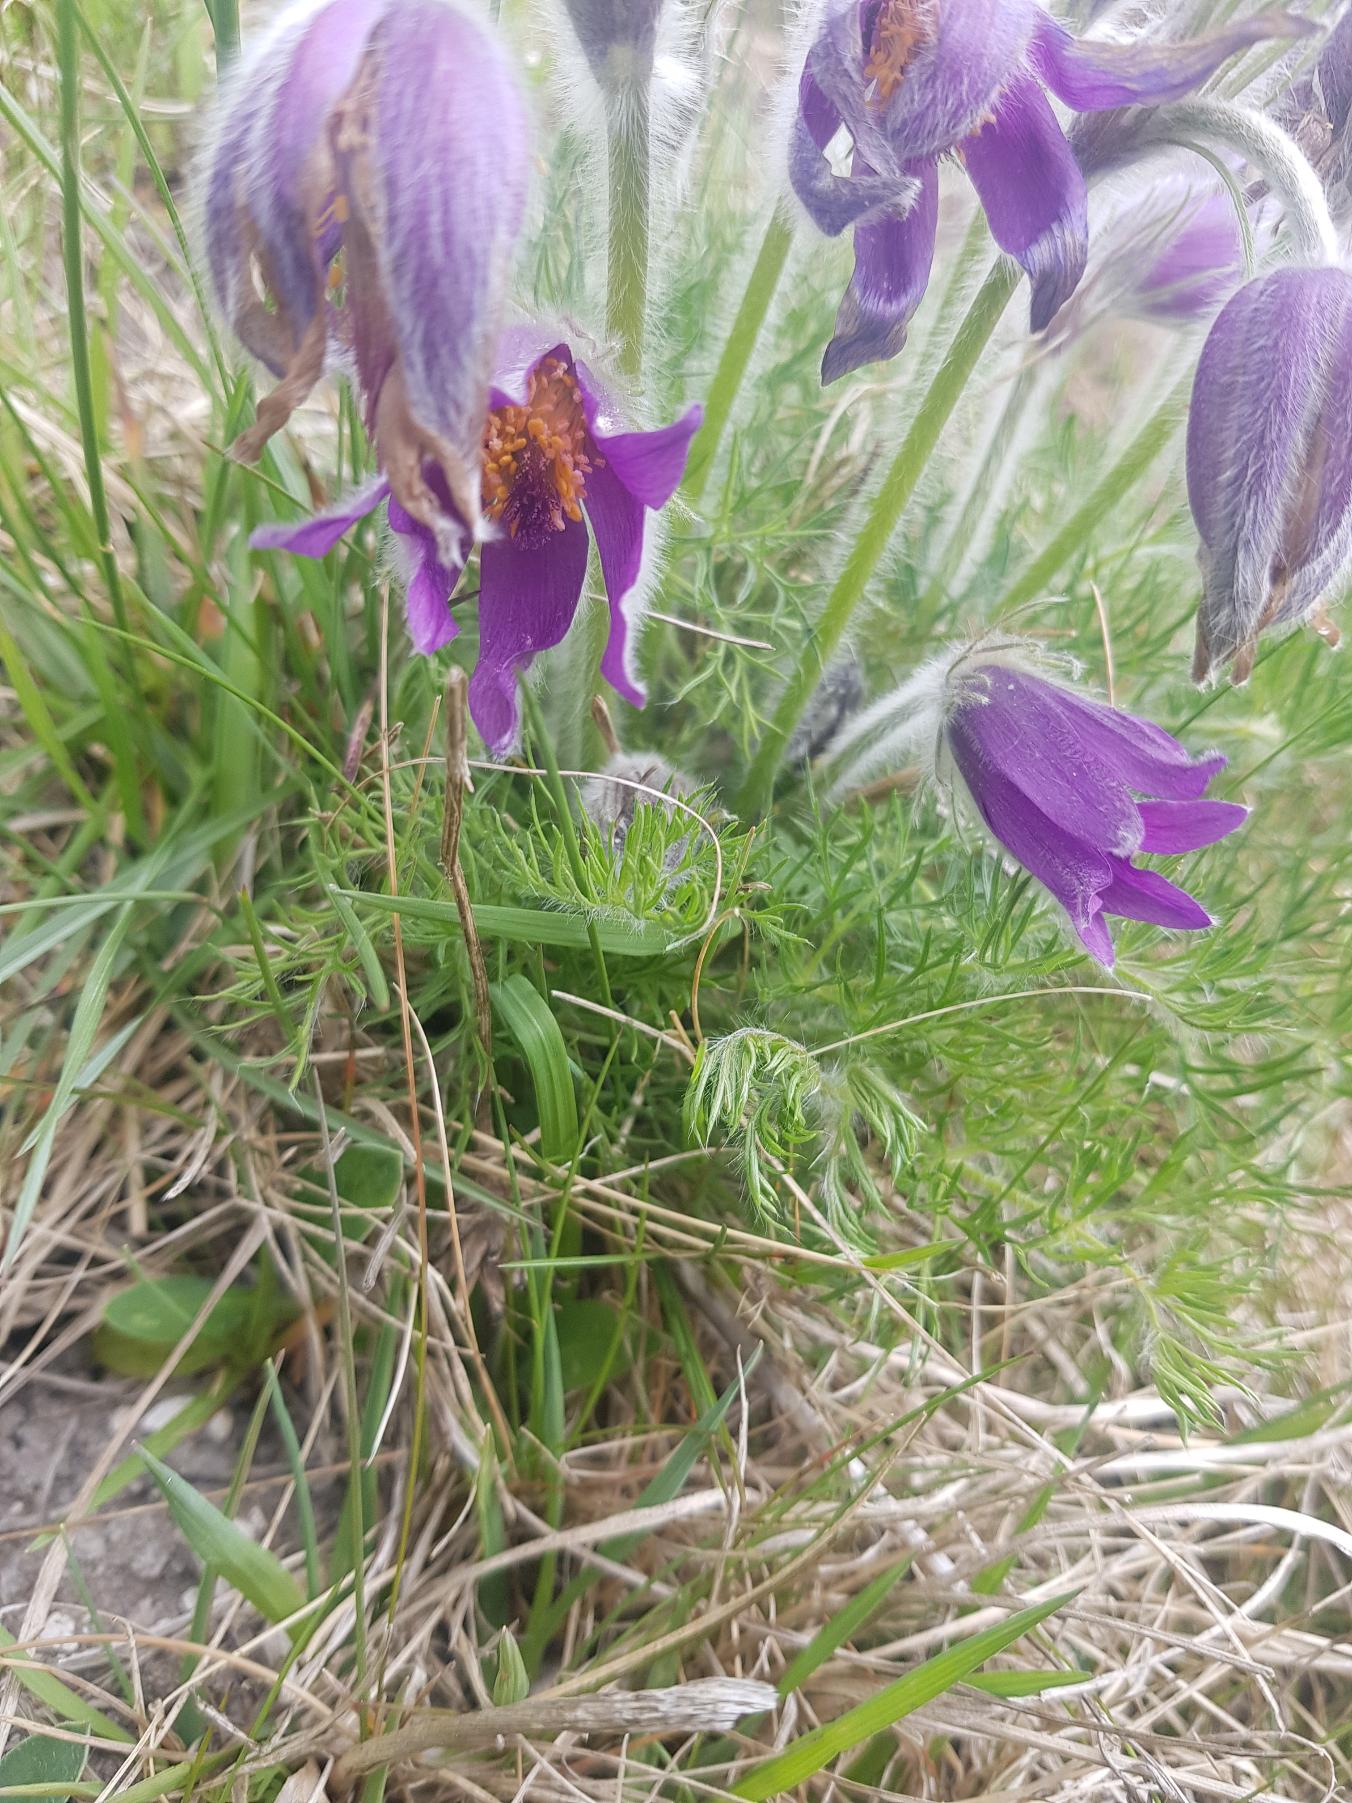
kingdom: Plantae
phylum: Tracheophyta
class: Magnoliopsida
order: Ranunculales
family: Ranunculaceae
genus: Pulsatilla
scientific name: Pulsatilla vulgaris
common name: Opret kobjælde
